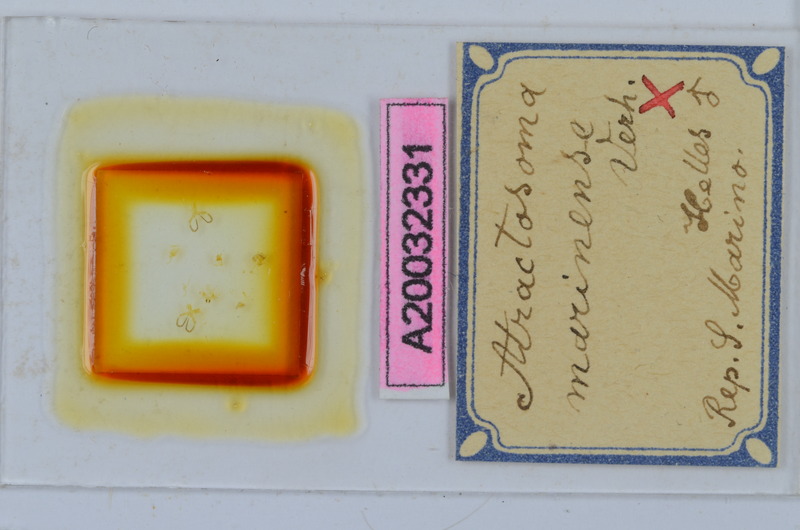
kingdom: Animalia
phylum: Arthropoda
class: Diplopoda
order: Chordeumatida
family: Craspedosomatidae
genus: Atractosoma
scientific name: Atractosoma marinense
